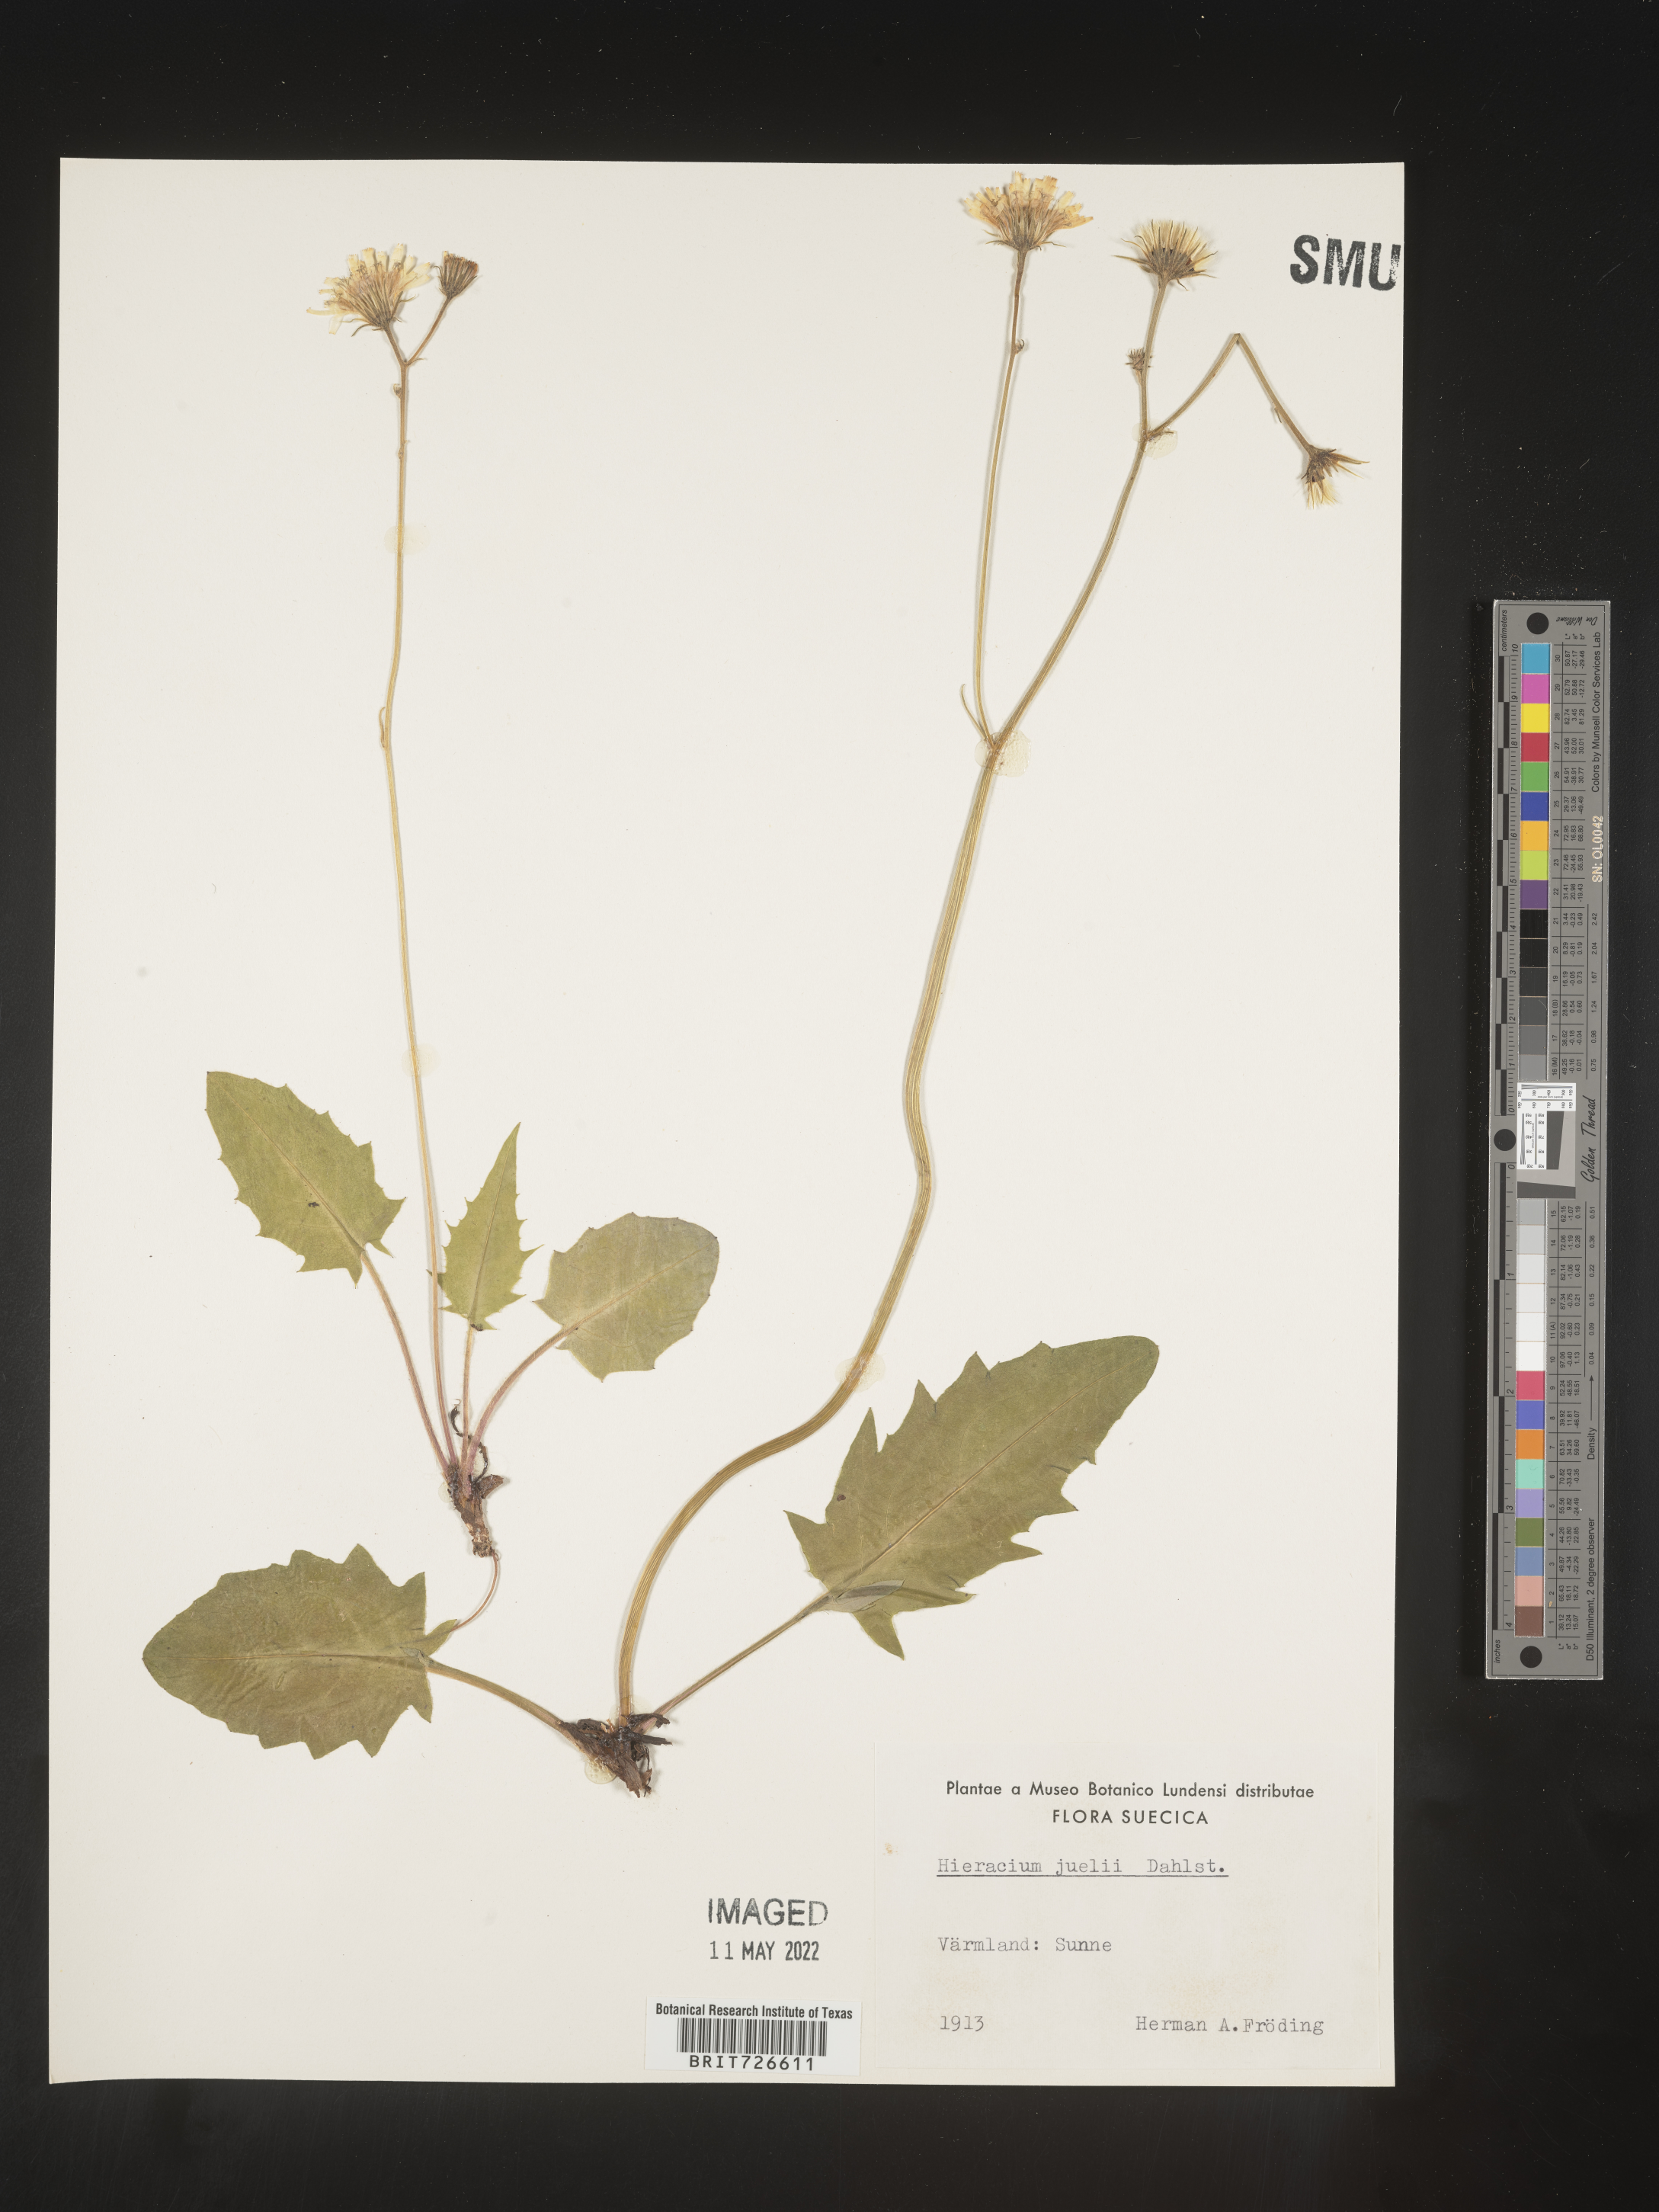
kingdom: Plantae
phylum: Tracheophyta
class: Magnoliopsida
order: Asterales
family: Asteraceae
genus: Hieracium
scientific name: Hieracium
